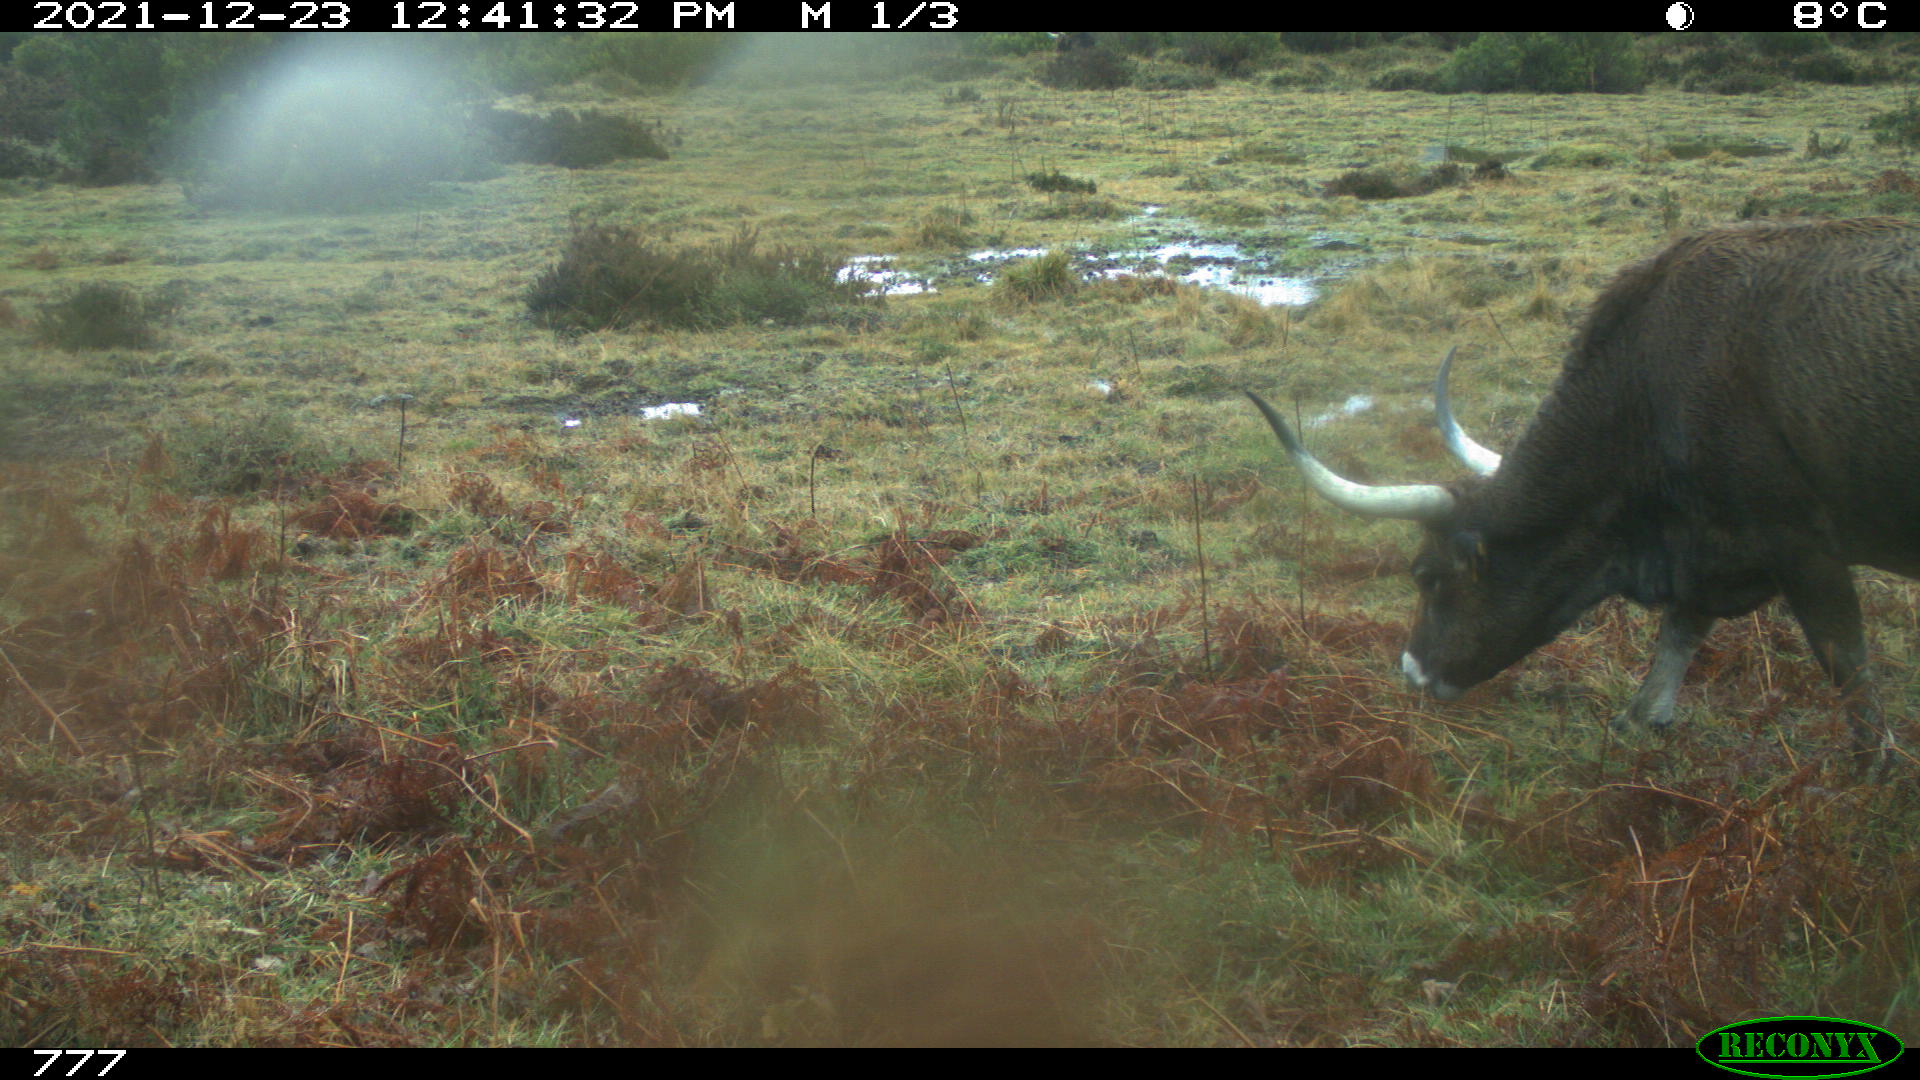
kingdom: Animalia
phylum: Chordata
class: Mammalia
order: Artiodactyla
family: Bovidae
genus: Bos
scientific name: Bos taurus
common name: Domesticated cattle
